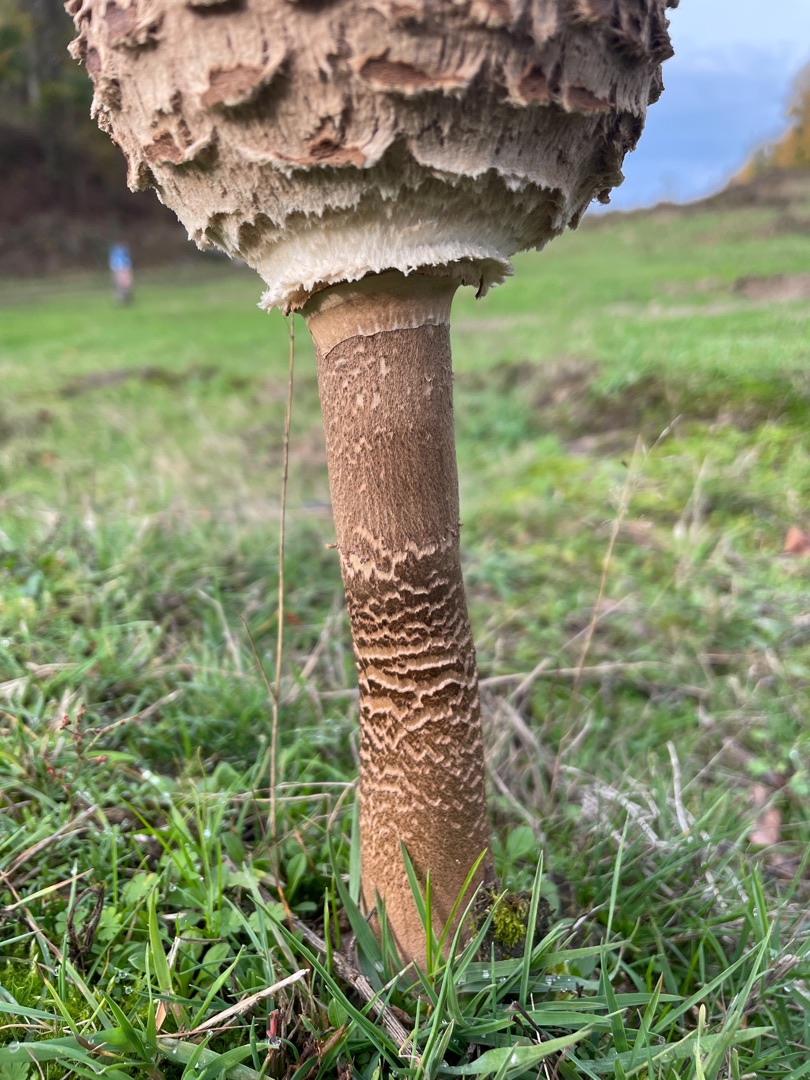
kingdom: Fungi
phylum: Basidiomycota
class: Agaricomycetes
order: Agaricales
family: Agaricaceae
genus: Macrolepiota
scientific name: Macrolepiota procera
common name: Stor kæmpeparasolhat
